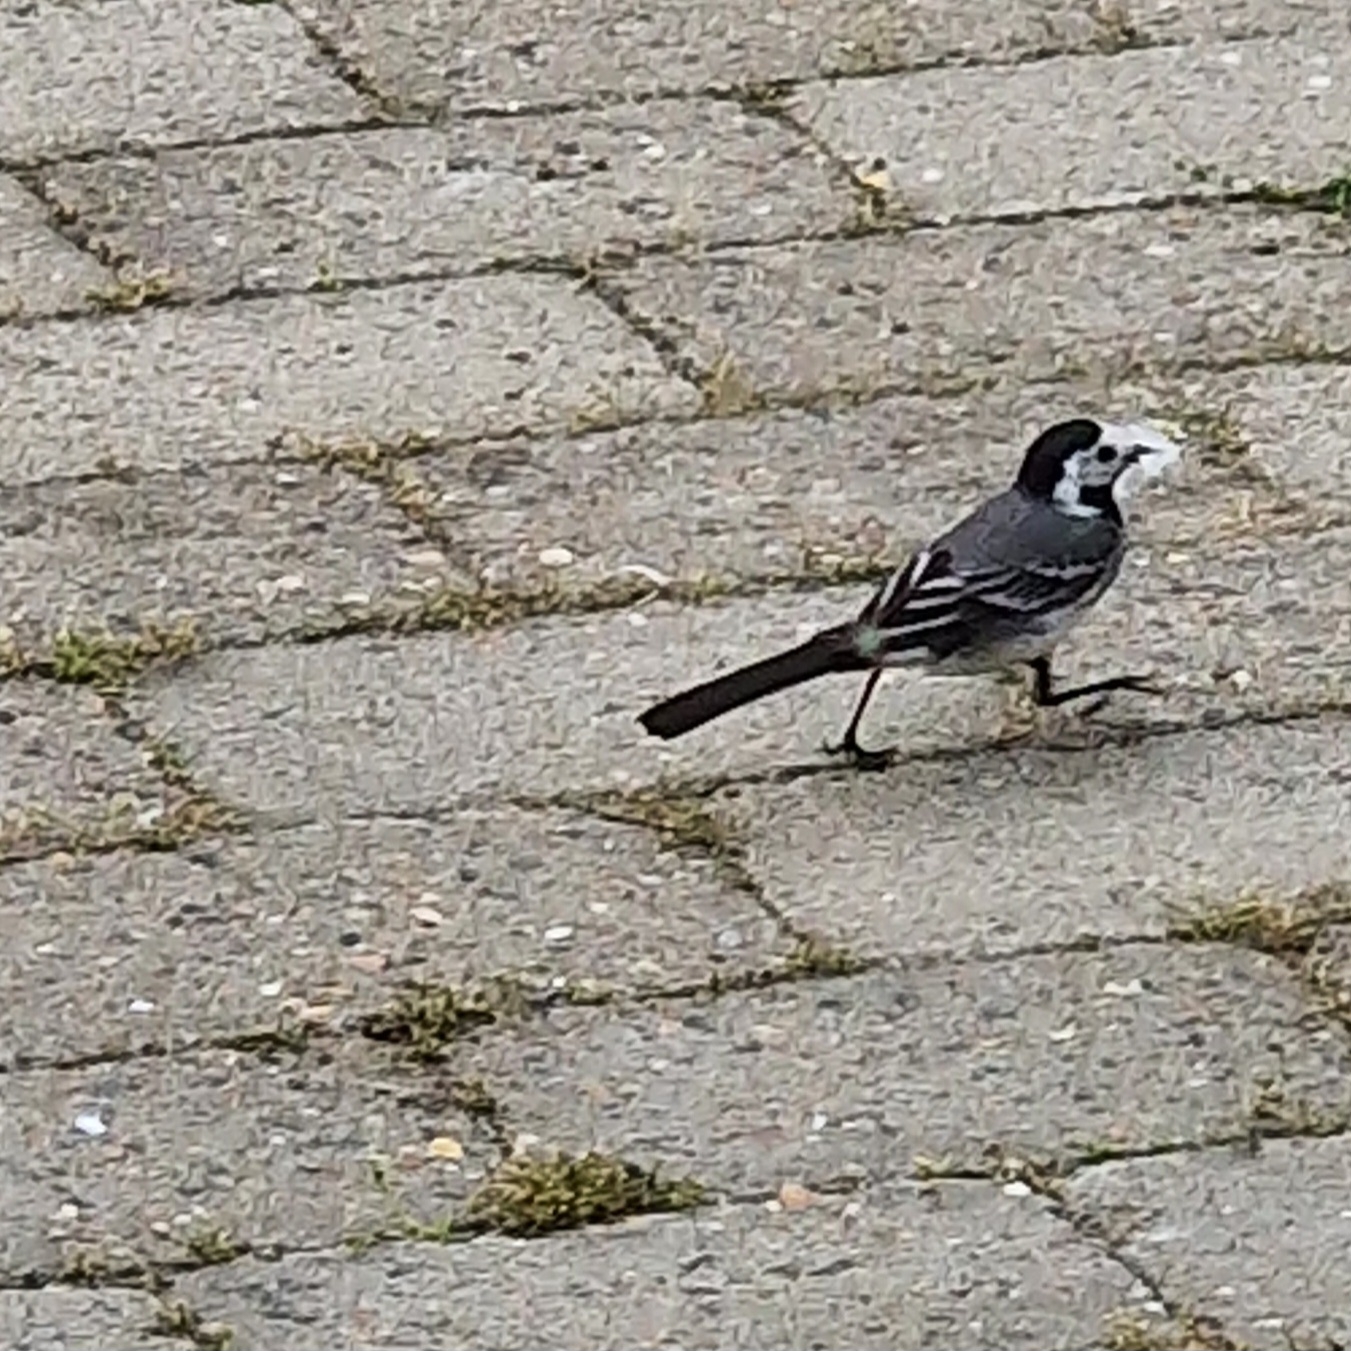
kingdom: Animalia
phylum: Chordata
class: Aves
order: Passeriformes
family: Motacillidae
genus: Motacilla
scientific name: Motacilla alba
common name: Hvid vipstjert
